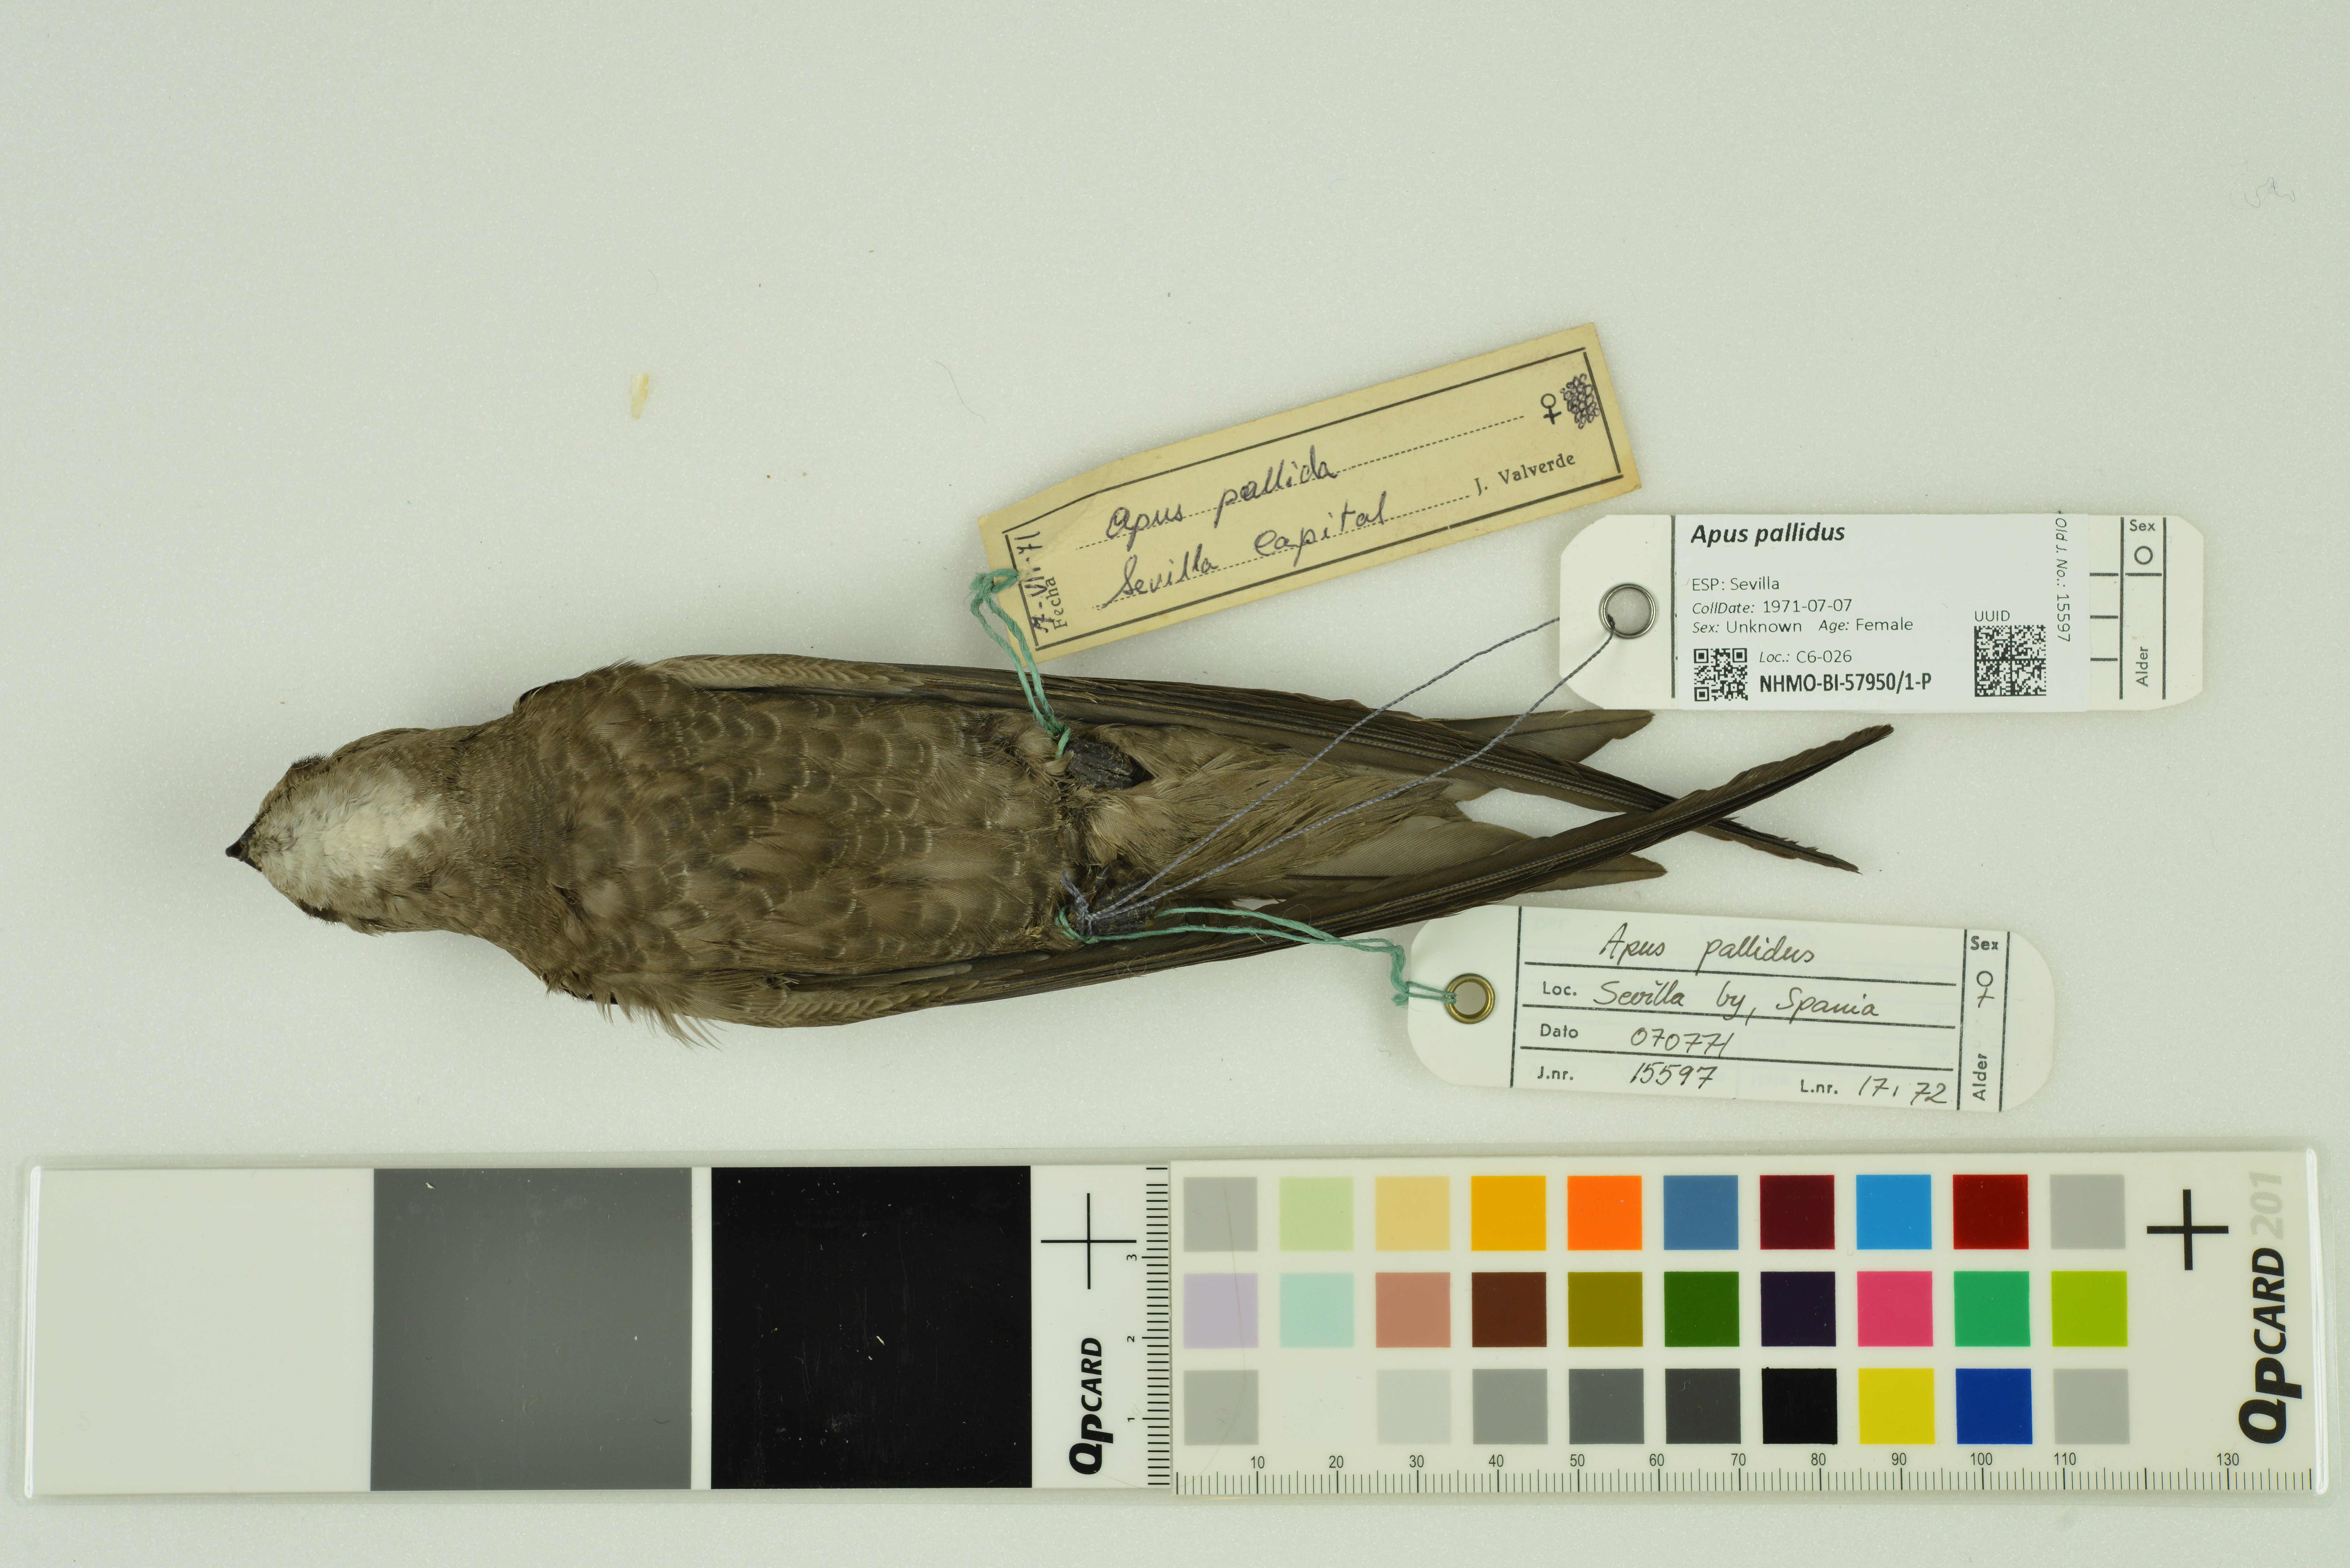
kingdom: Animalia
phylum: Chordata
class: Aves
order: Apodiformes
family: Apodidae
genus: Apus
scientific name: Apus pallidus
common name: Pallid swift
